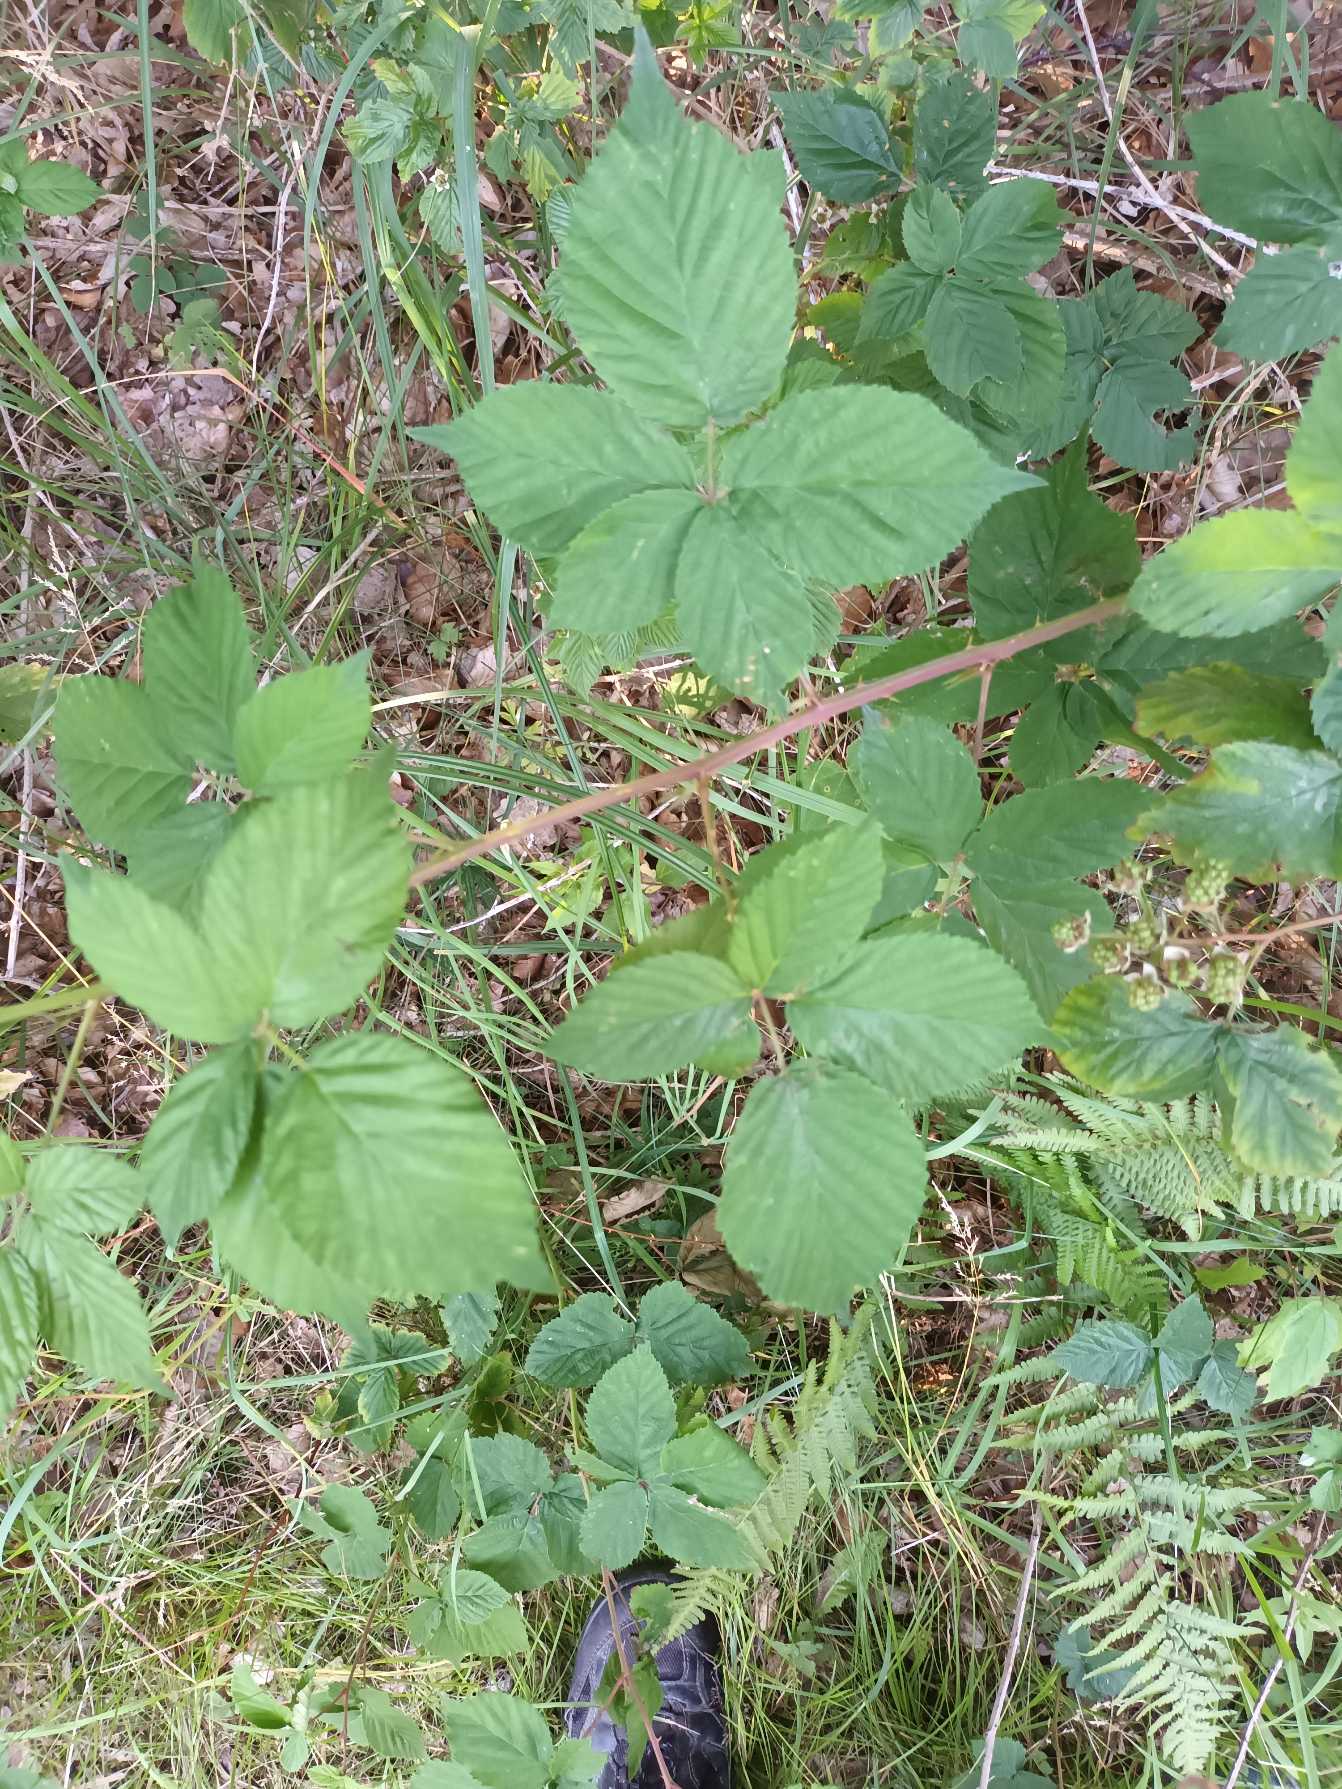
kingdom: Plantae
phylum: Tracheophyta
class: Magnoliopsida
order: Rosales
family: Rosaceae
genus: Rubus
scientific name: Rubus plicatus
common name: Almindelig brombær
